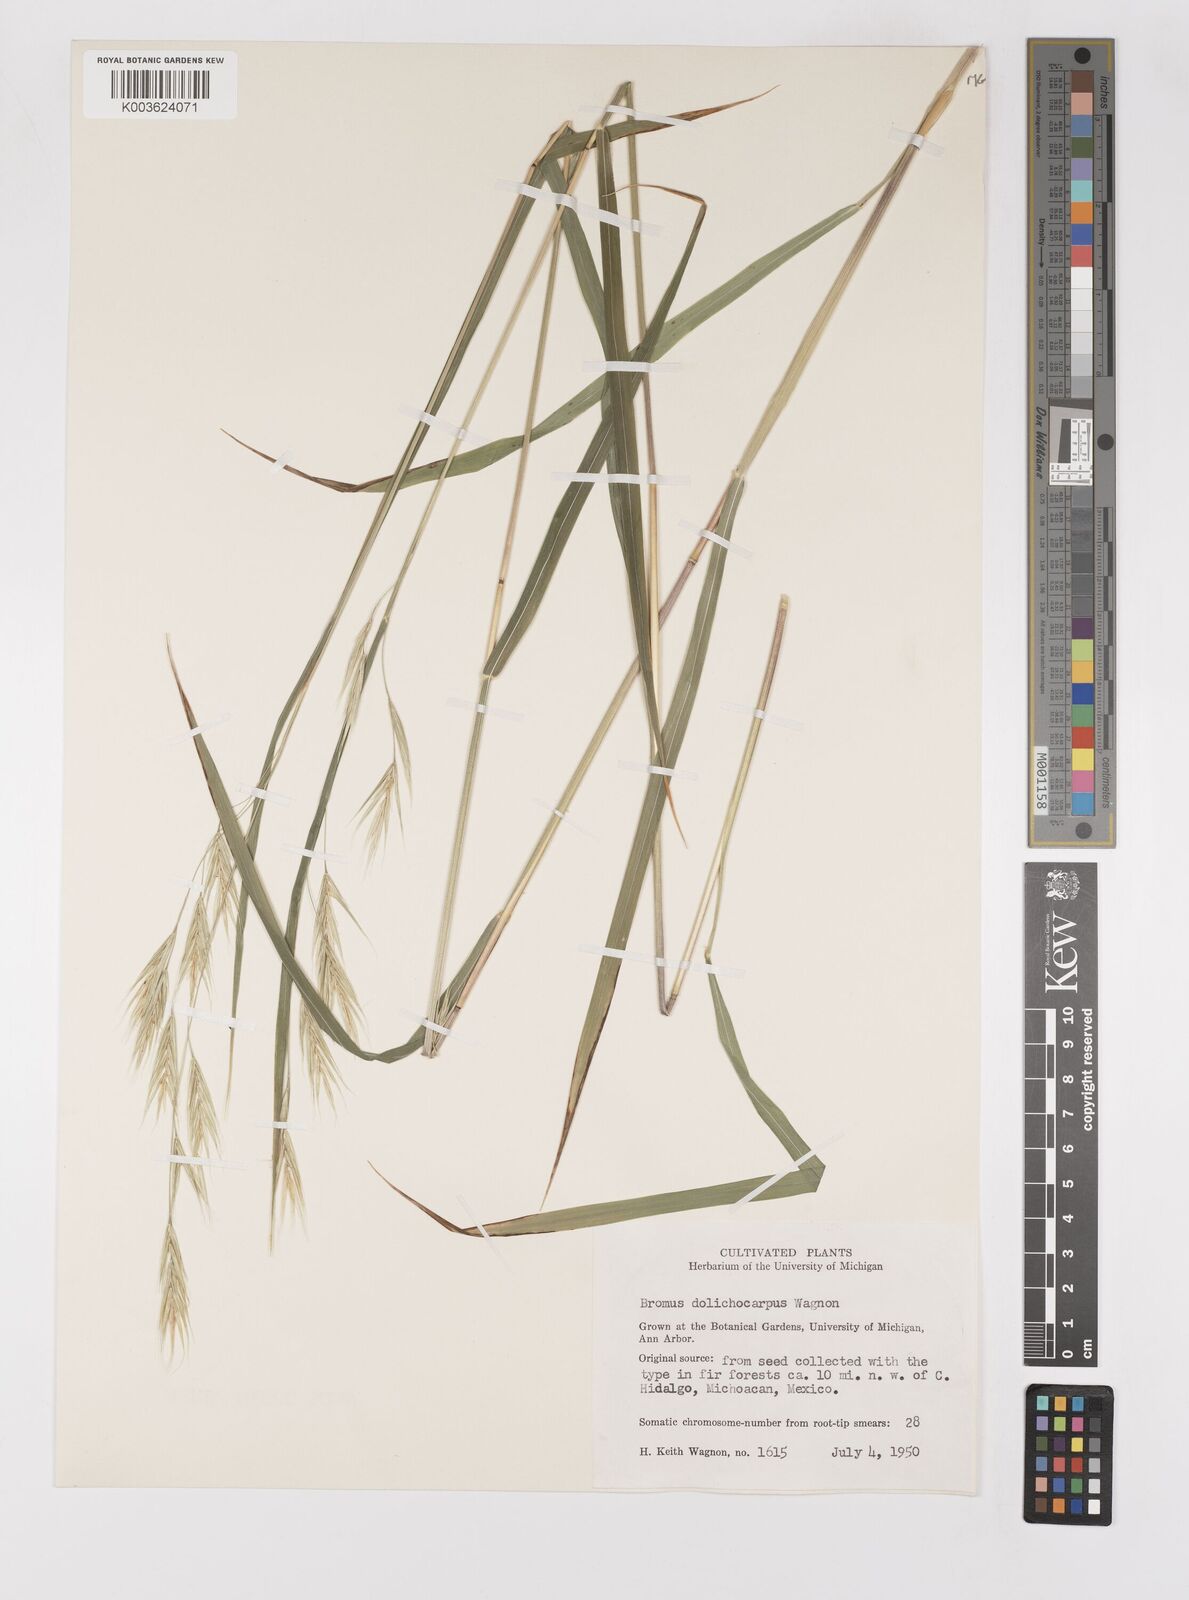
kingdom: Plantae
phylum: Tracheophyta
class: Liliopsida
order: Poales
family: Poaceae
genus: Bromus
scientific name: Bromus dolichocarpus
